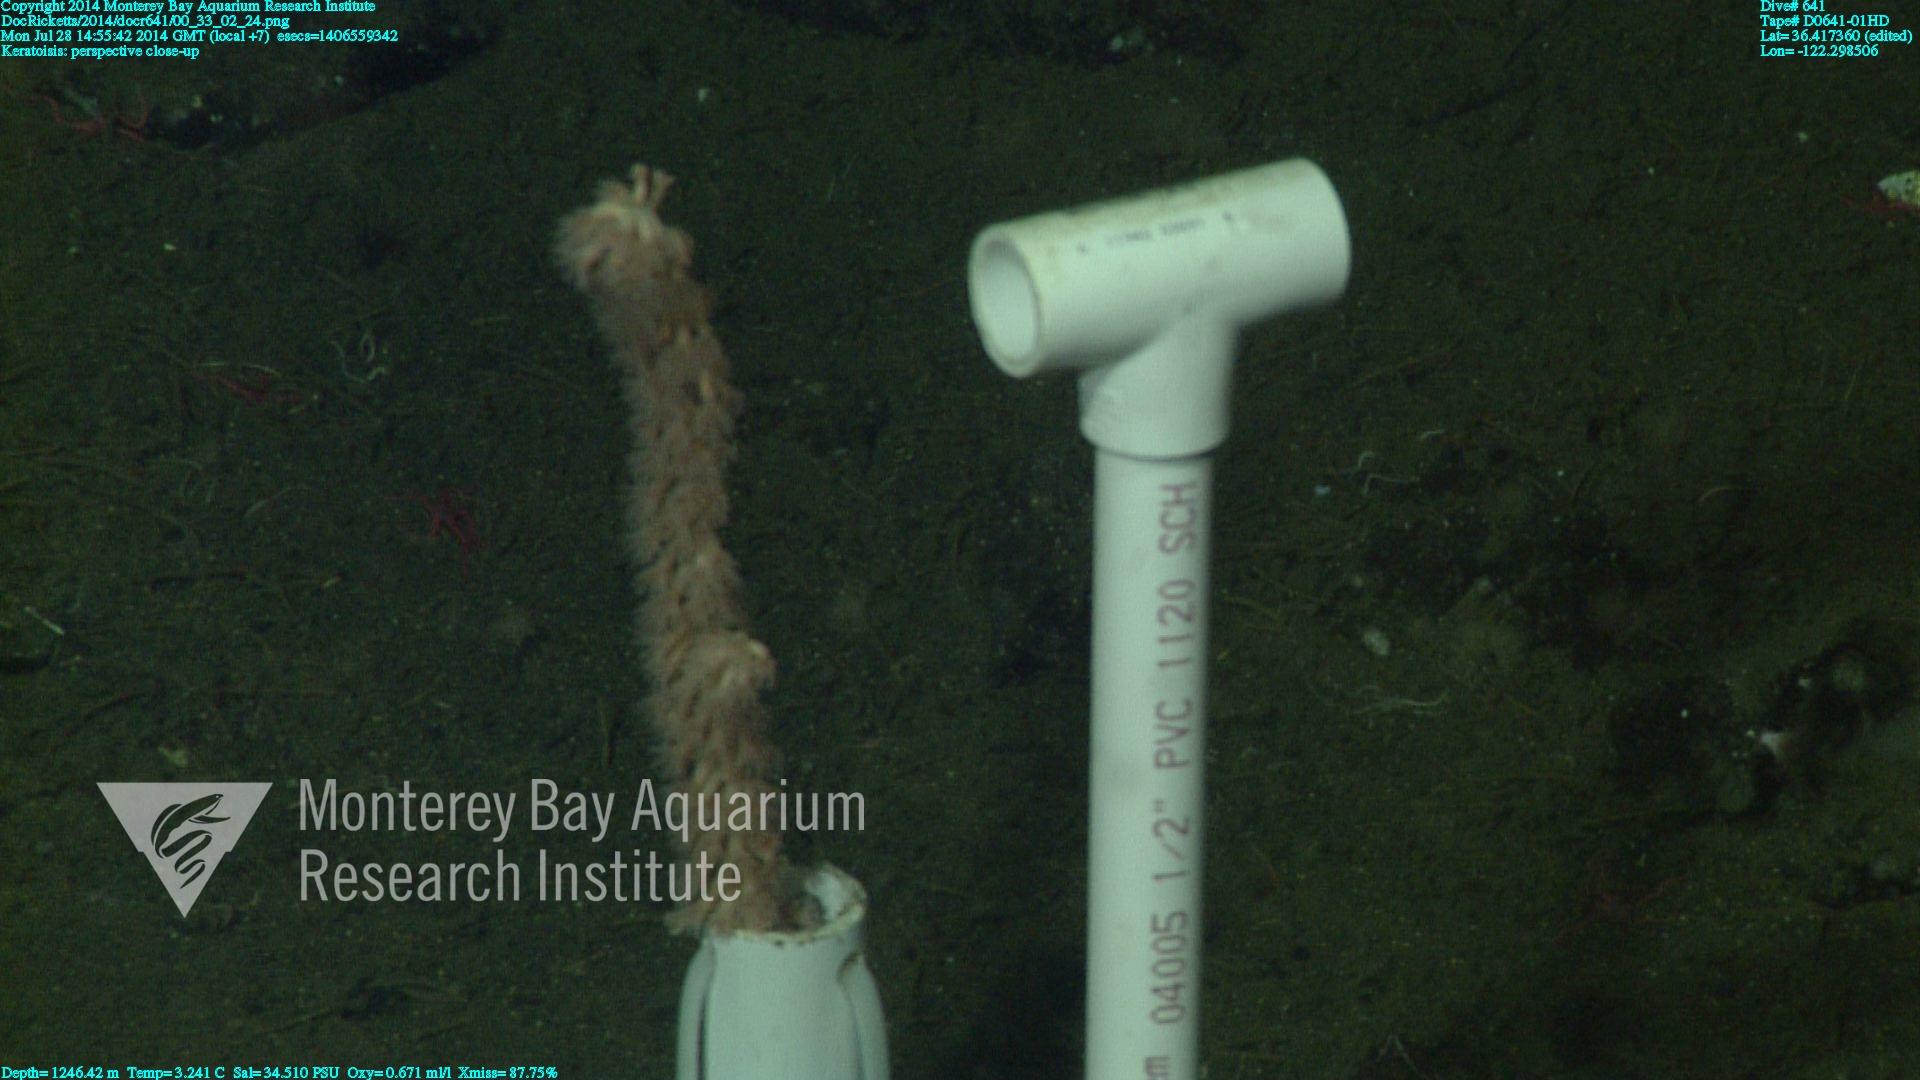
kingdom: Animalia
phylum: Cnidaria
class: Anthozoa
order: Scleralcyonacea
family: Keratoisididae
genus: Keratoisis
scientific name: Keratoisis
